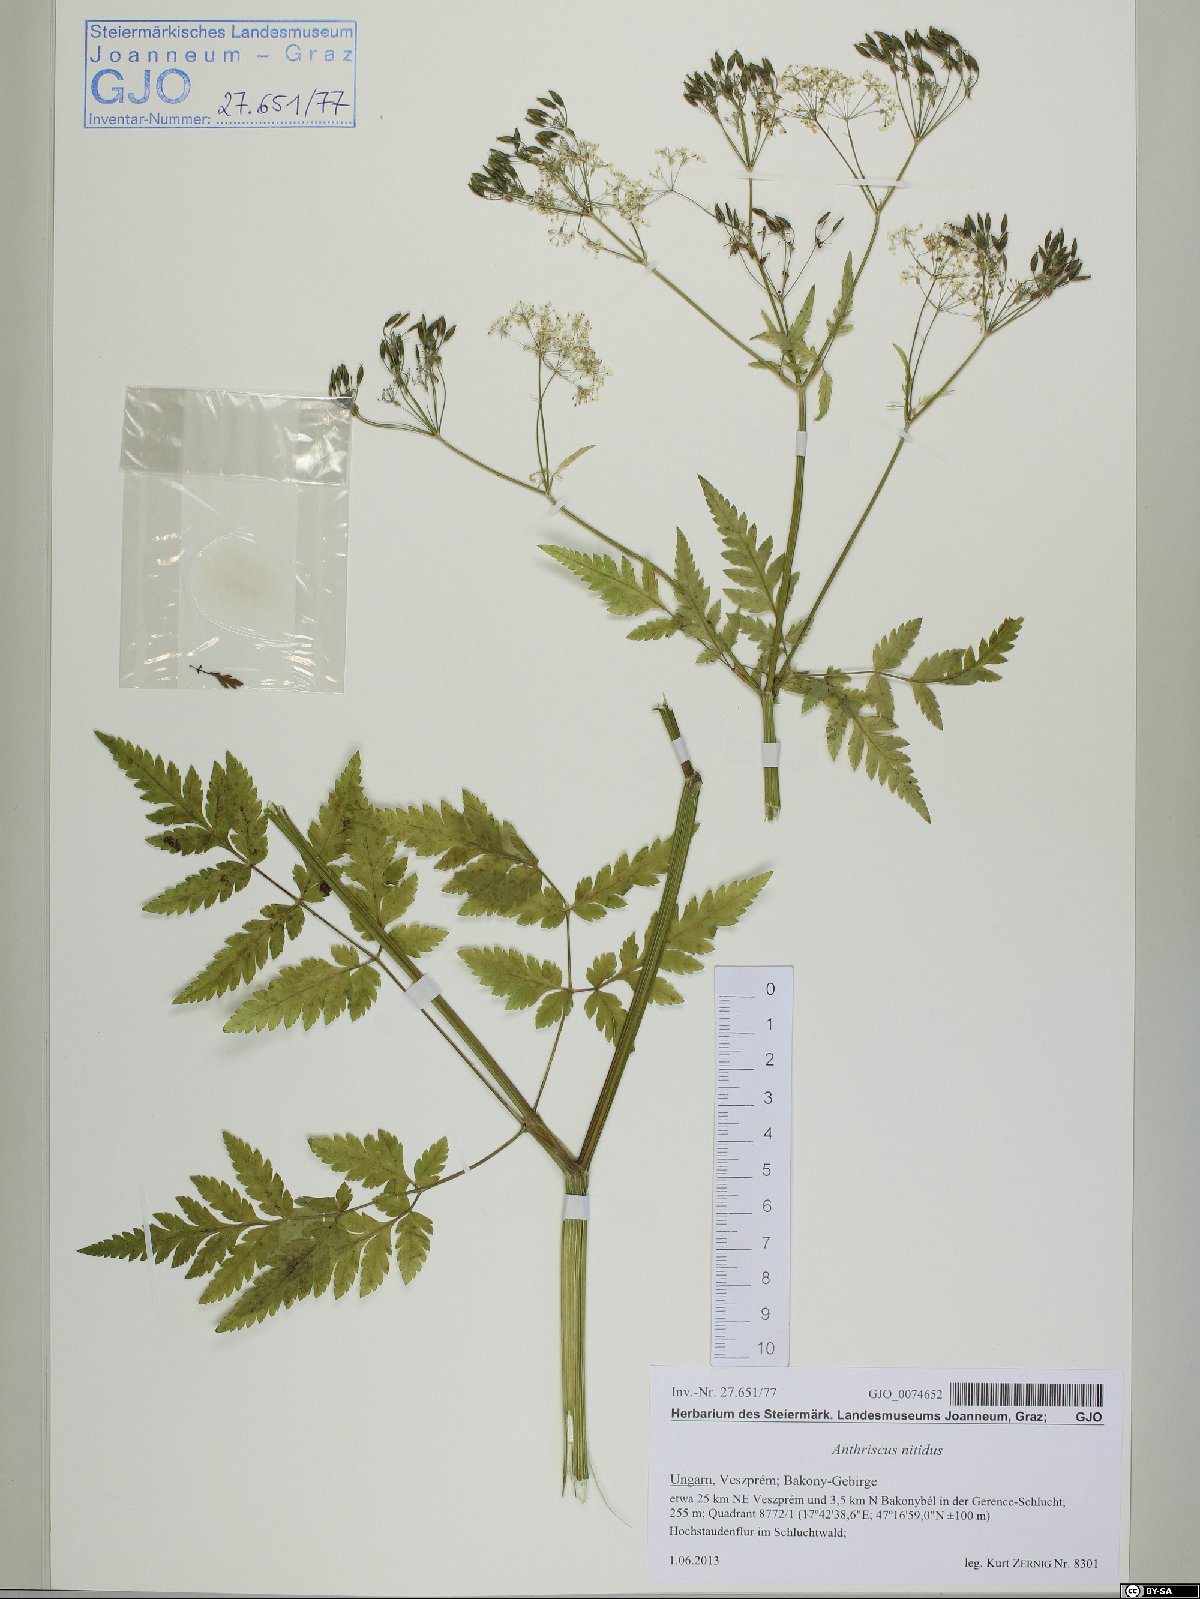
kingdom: Plantae
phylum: Tracheophyta
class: Magnoliopsida
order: Apiales
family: Apiaceae
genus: Anthriscus
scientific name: Anthriscus nitida
